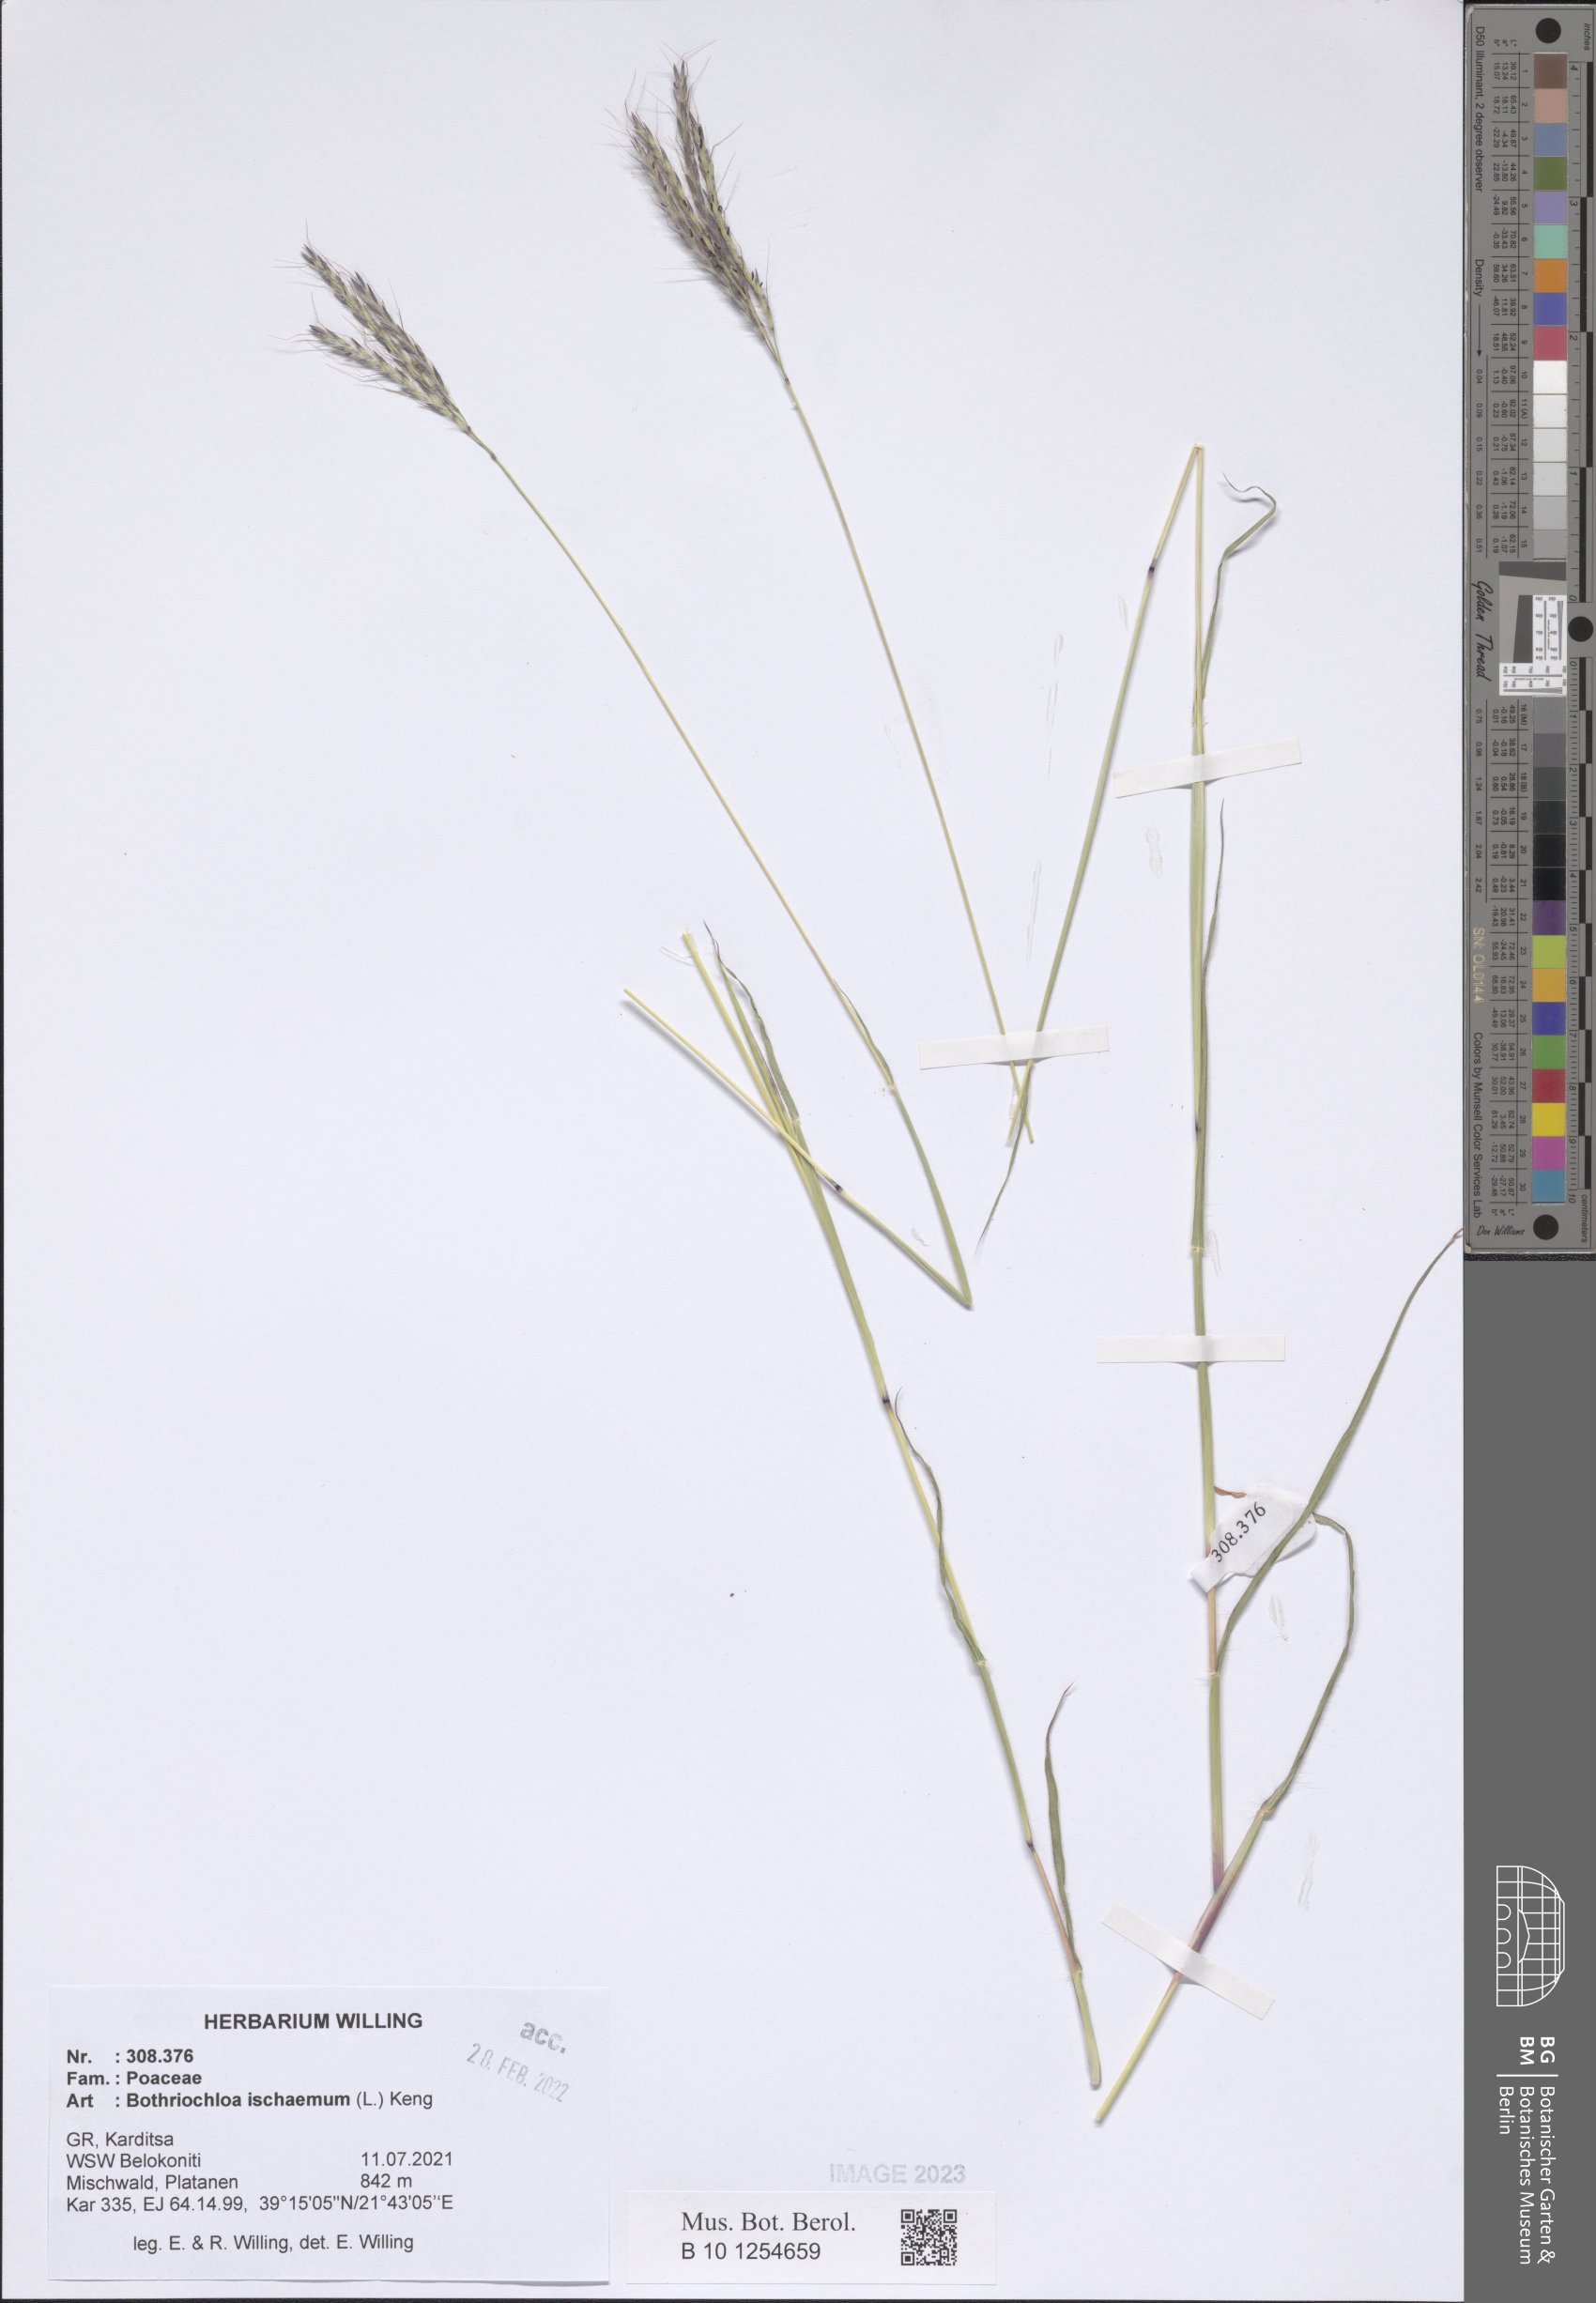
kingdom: Plantae
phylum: Tracheophyta
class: Liliopsida
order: Poales
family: Poaceae
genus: Bothriochloa
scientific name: Bothriochloa ischaemum
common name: Yellow bluestem
